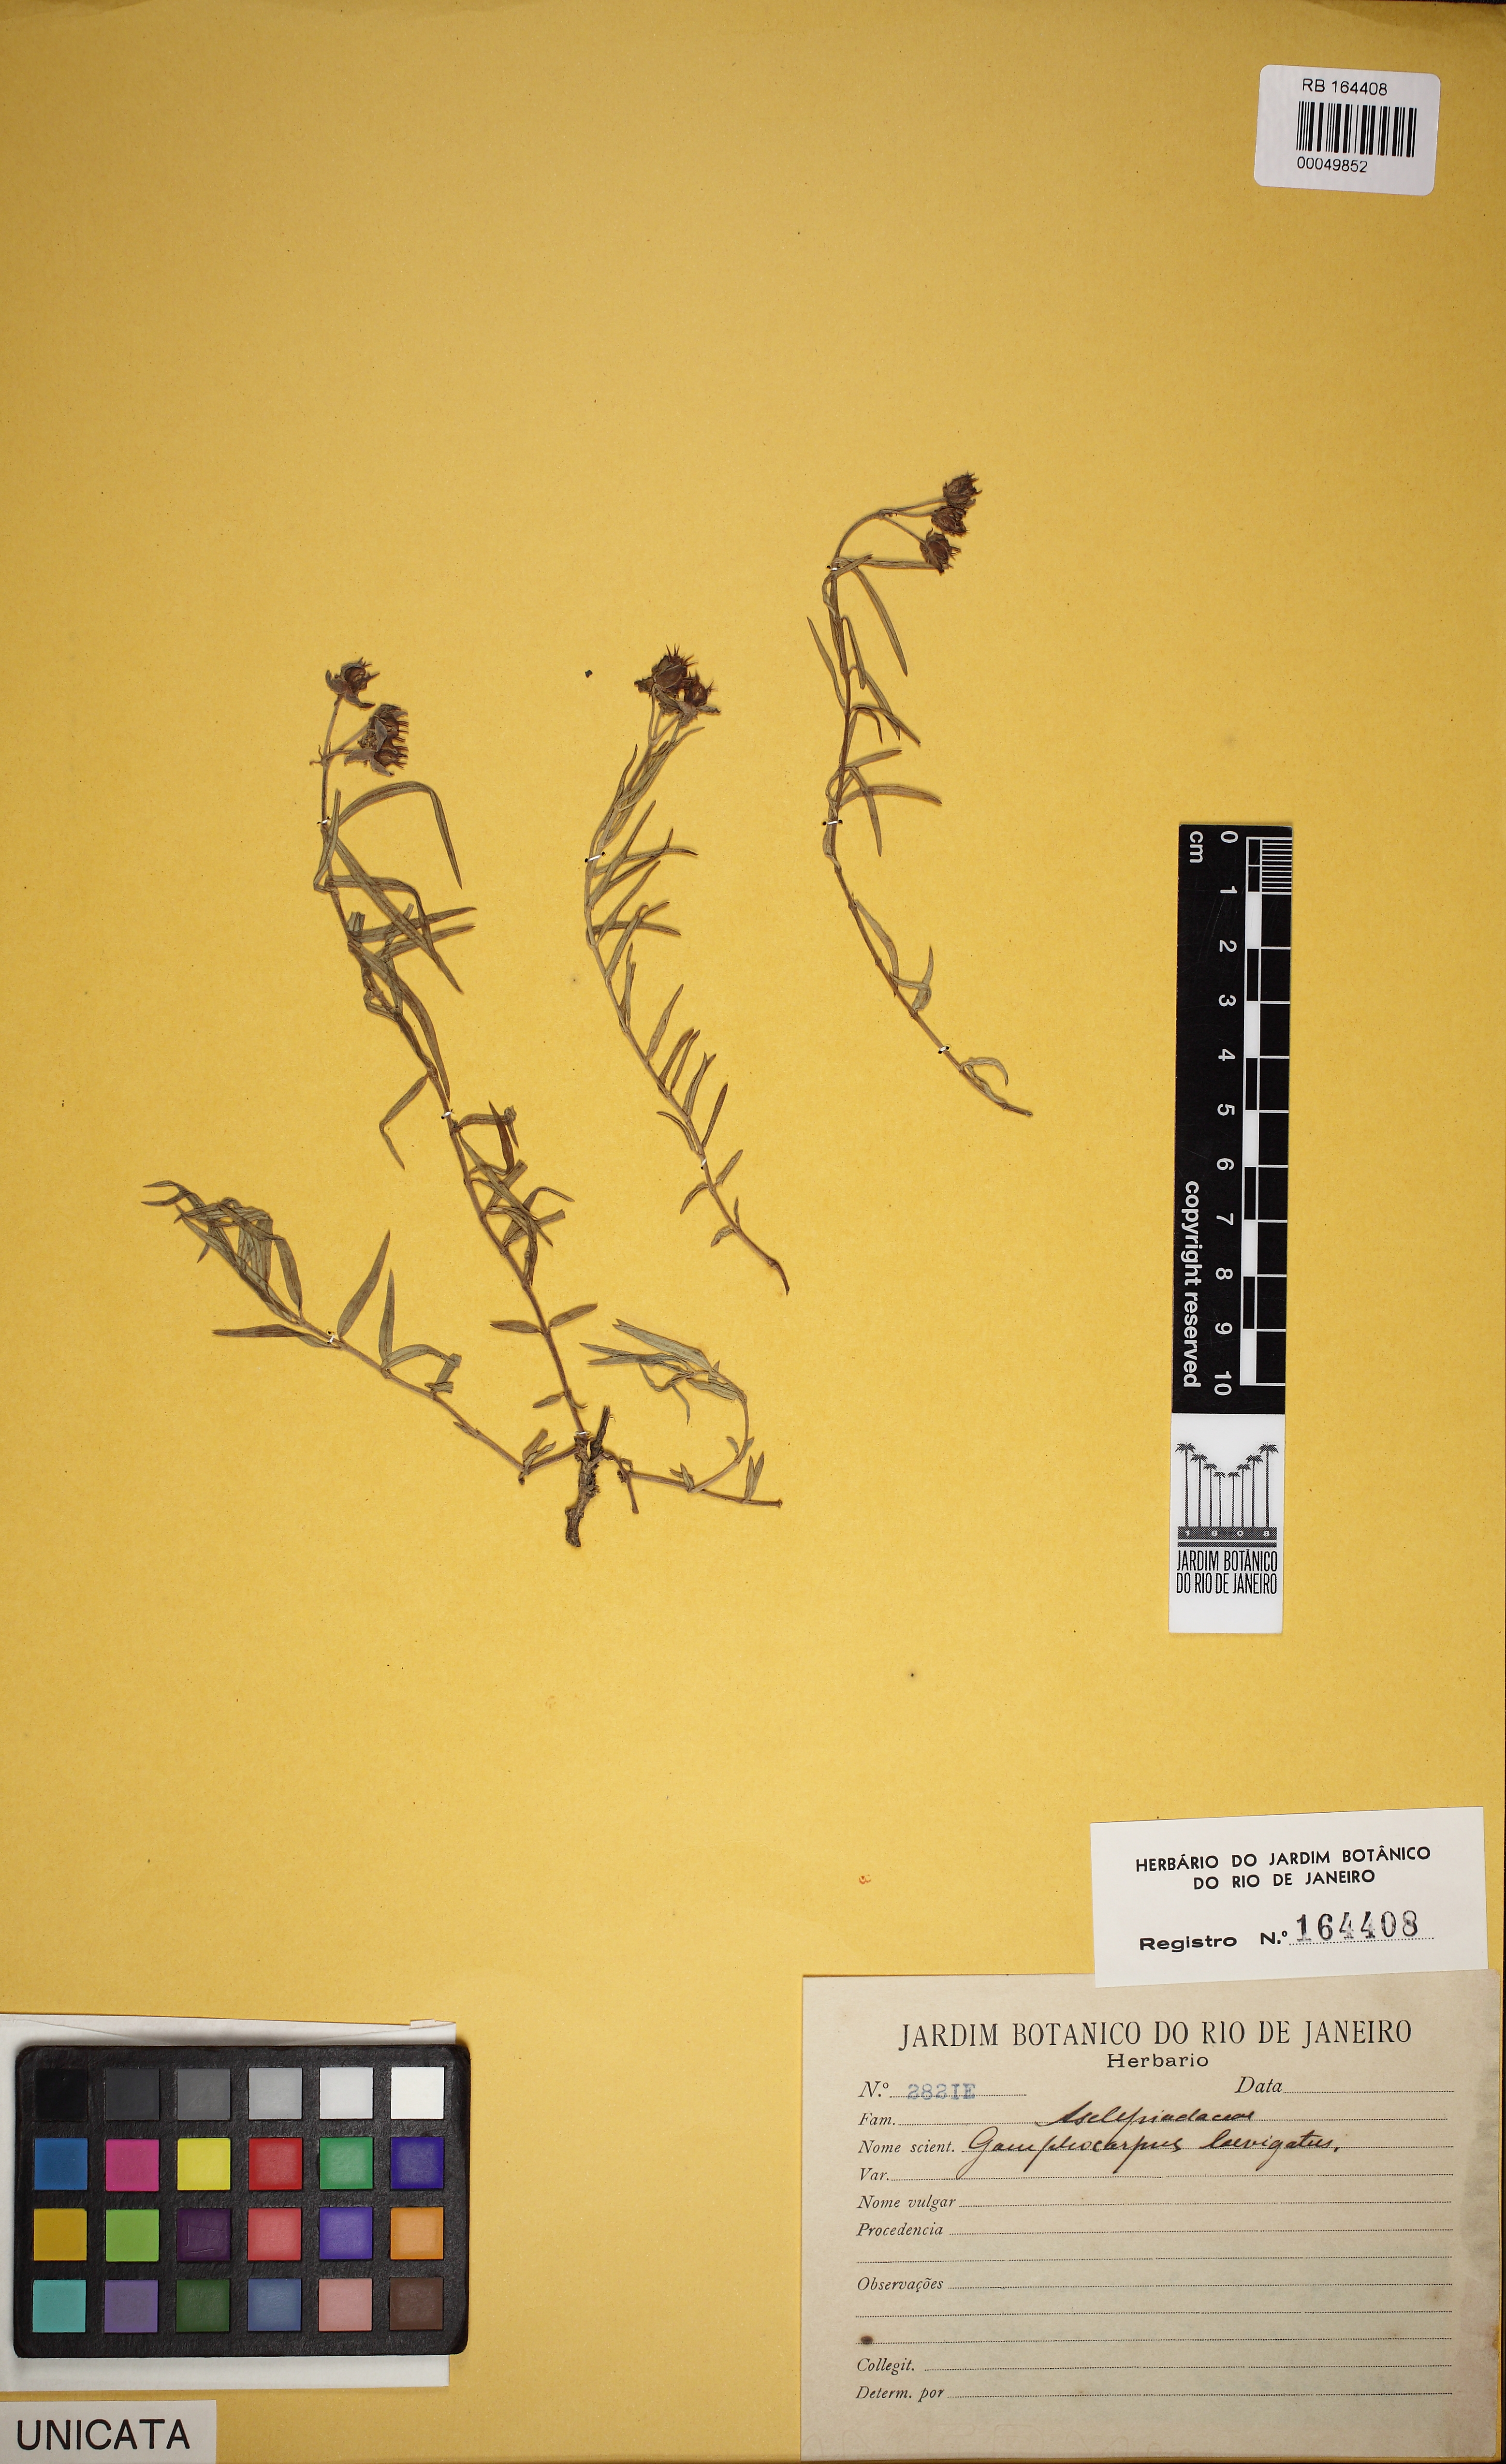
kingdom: Plantae
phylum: Tracheophyta
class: Magnoliopsida
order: Gentianales
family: Apocynaceae
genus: Ceropegia
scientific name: Ceropegia laevigata
